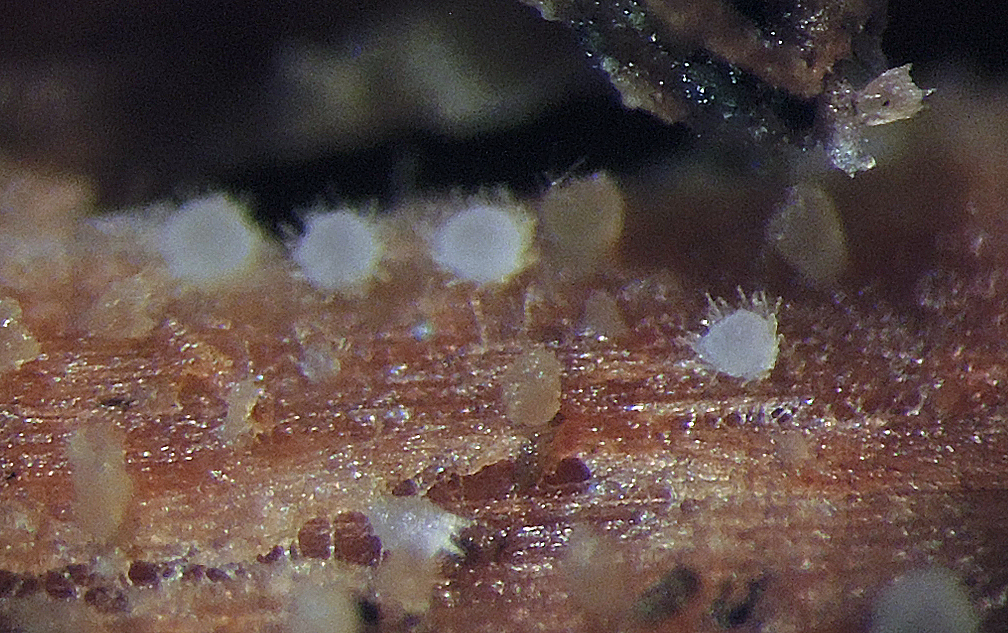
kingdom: Fungi
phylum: Ascomycota
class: Leotiomycetes
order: Helotiales
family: Arachnopezizaceae
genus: Arachnopeziza
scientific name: Arachnopeziza obtusipila
